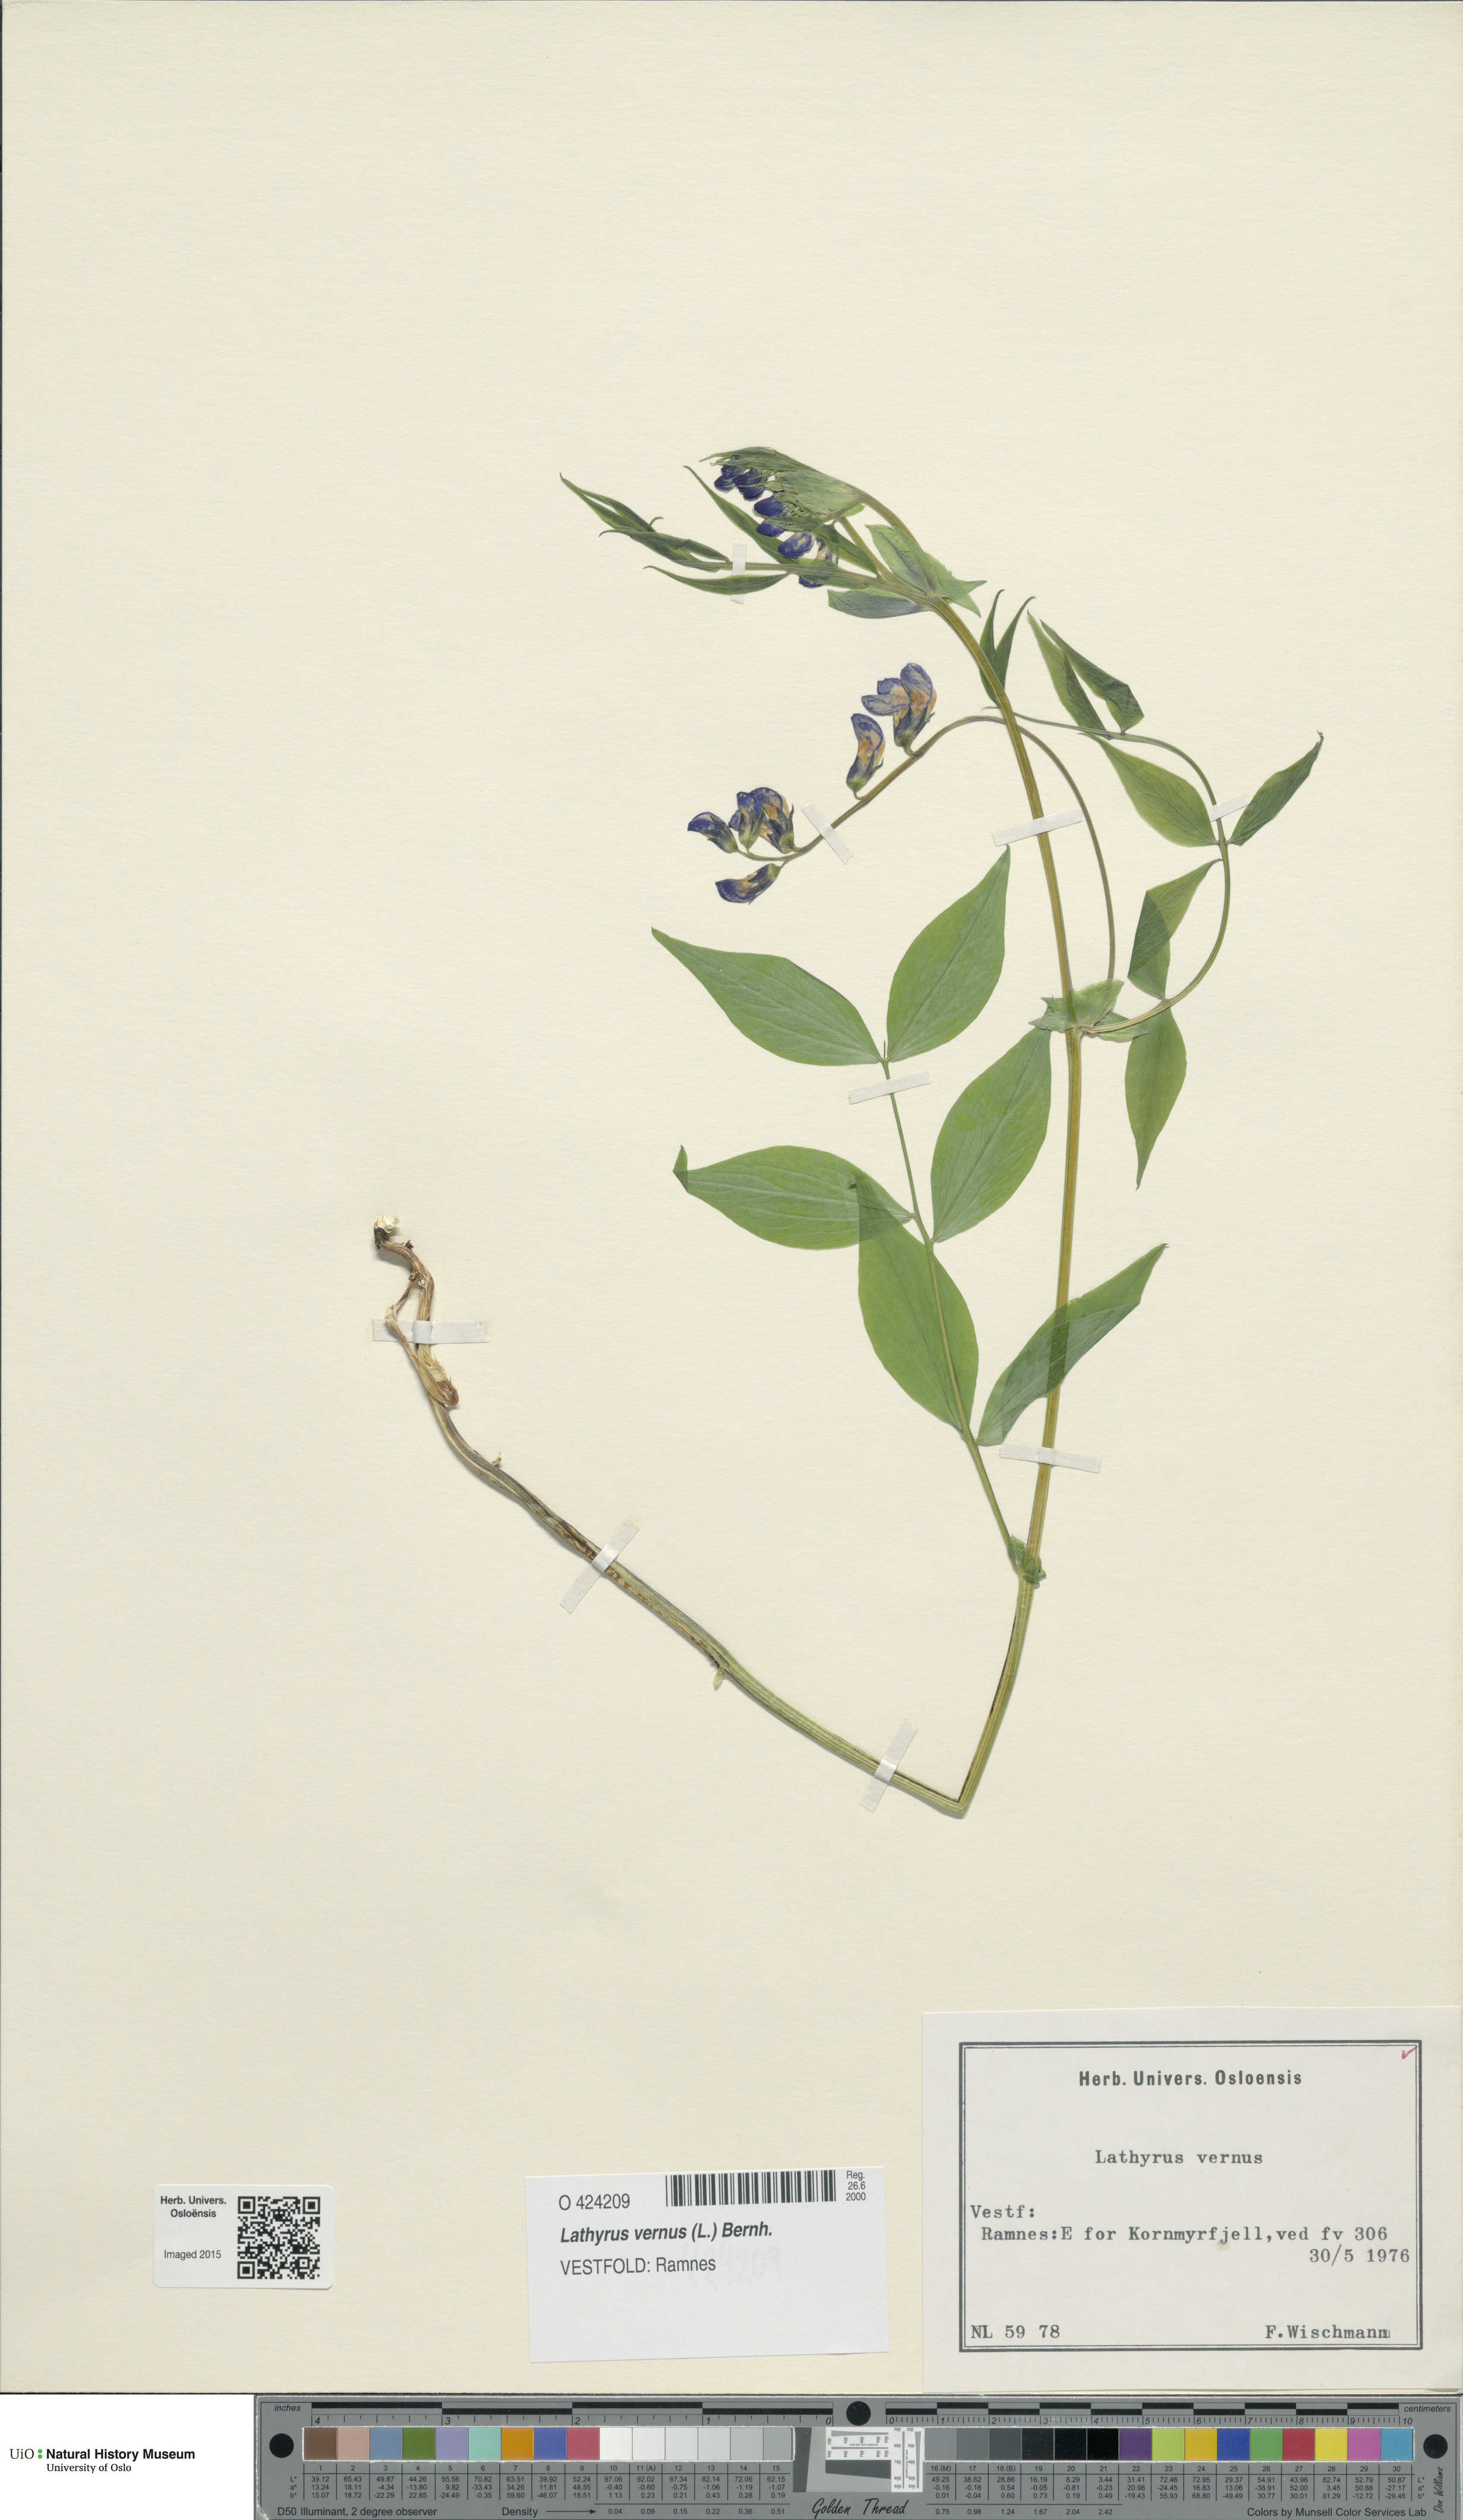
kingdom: Plantae
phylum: Tracheophyta
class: Magnoliopsida
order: Fabales
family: Fabaceae
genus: Lathyrus
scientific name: Lathyrus vernus
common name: Spring pea
